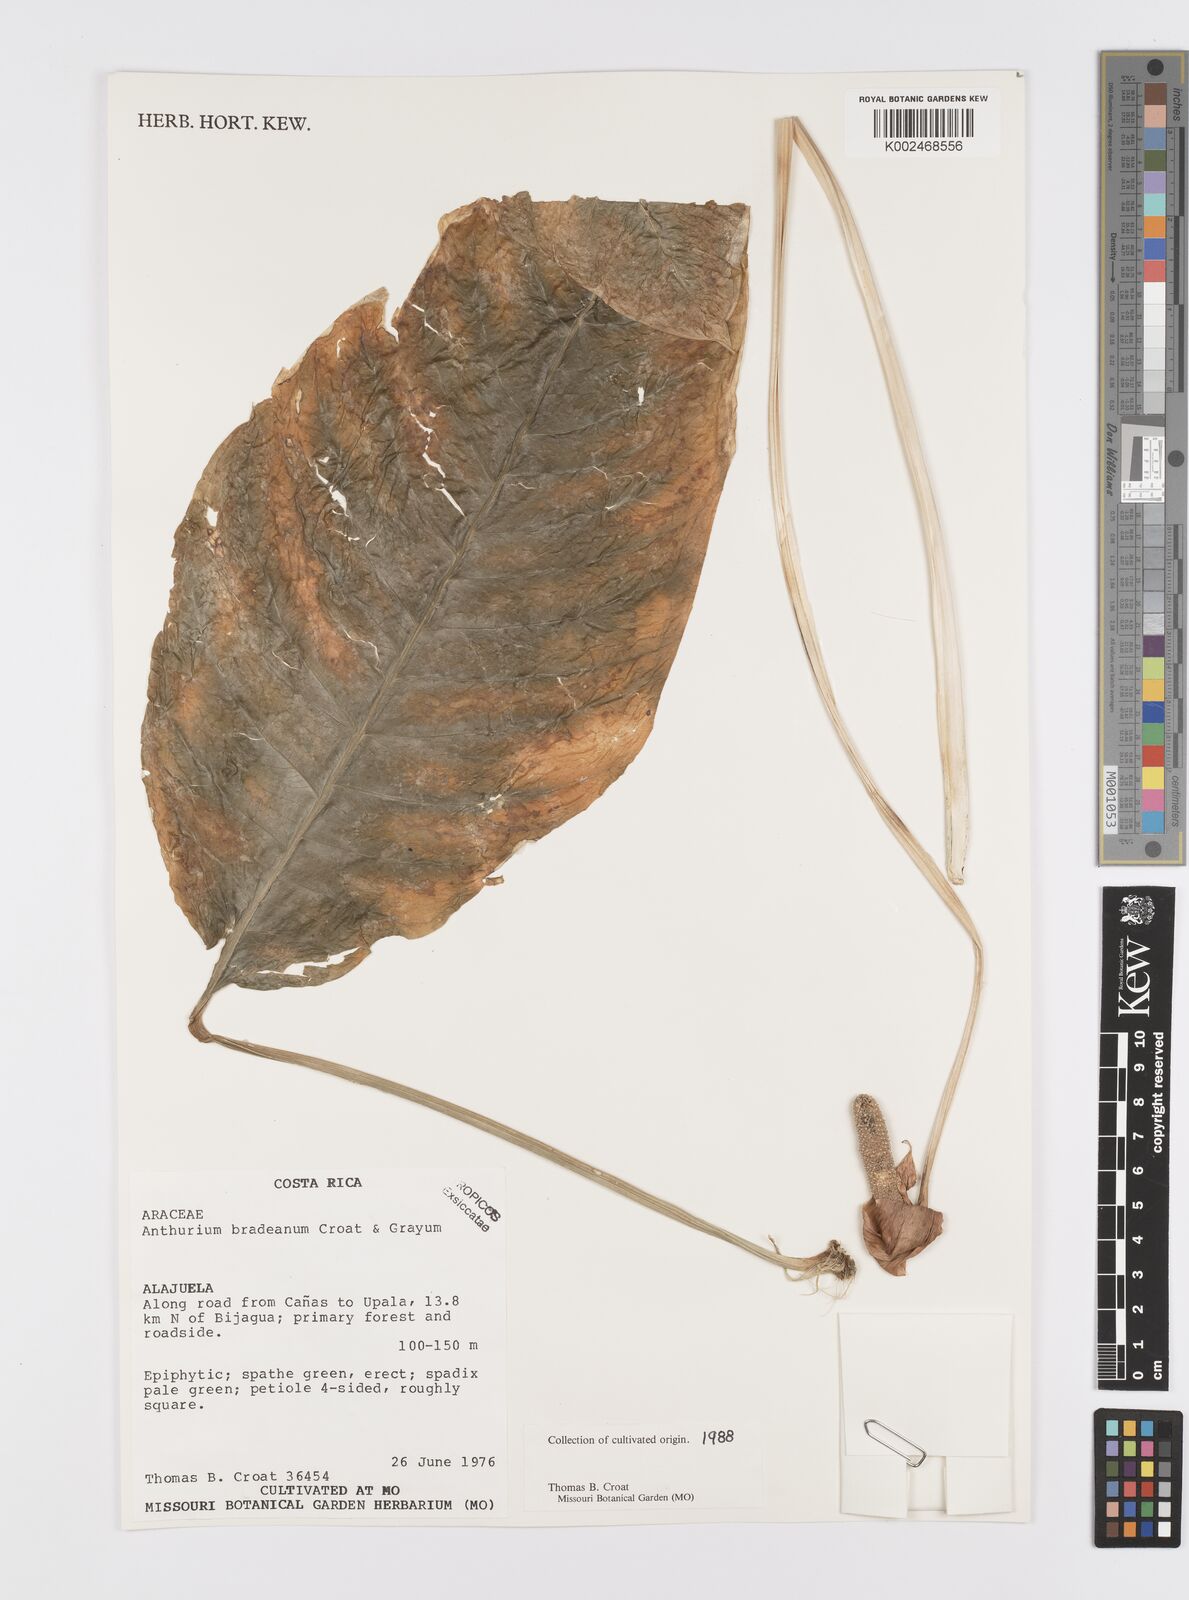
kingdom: Plantae
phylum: Tracheophyta
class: Liliopsida
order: Alismatales
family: Araceae
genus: Anthurium
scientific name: Anthurium bradeanum
